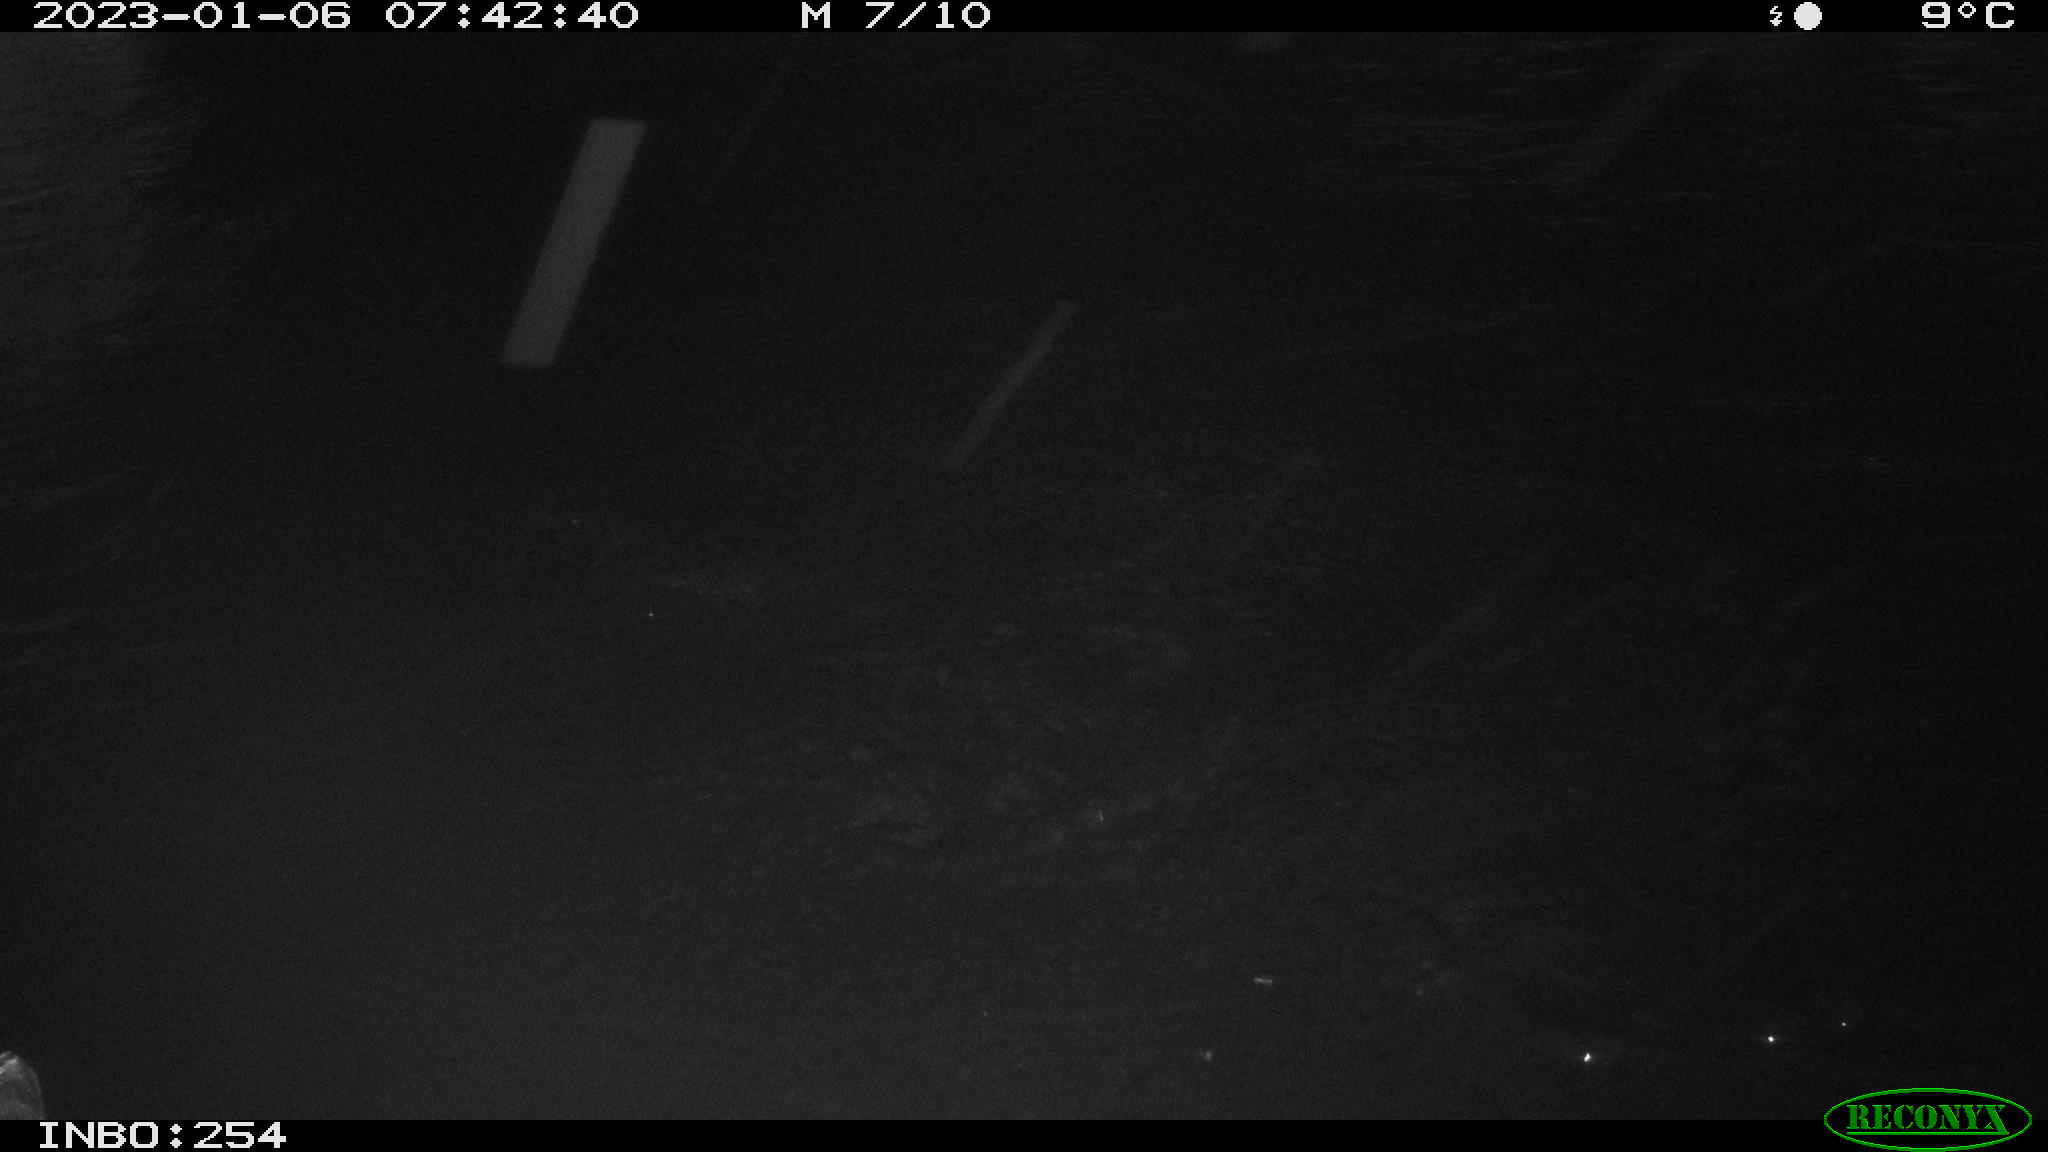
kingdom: Animalia
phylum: Chordata
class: Aves
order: Gruiformes
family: Rallidae
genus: Gallinula
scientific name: Gallinula chloropus
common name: Common moorhen
